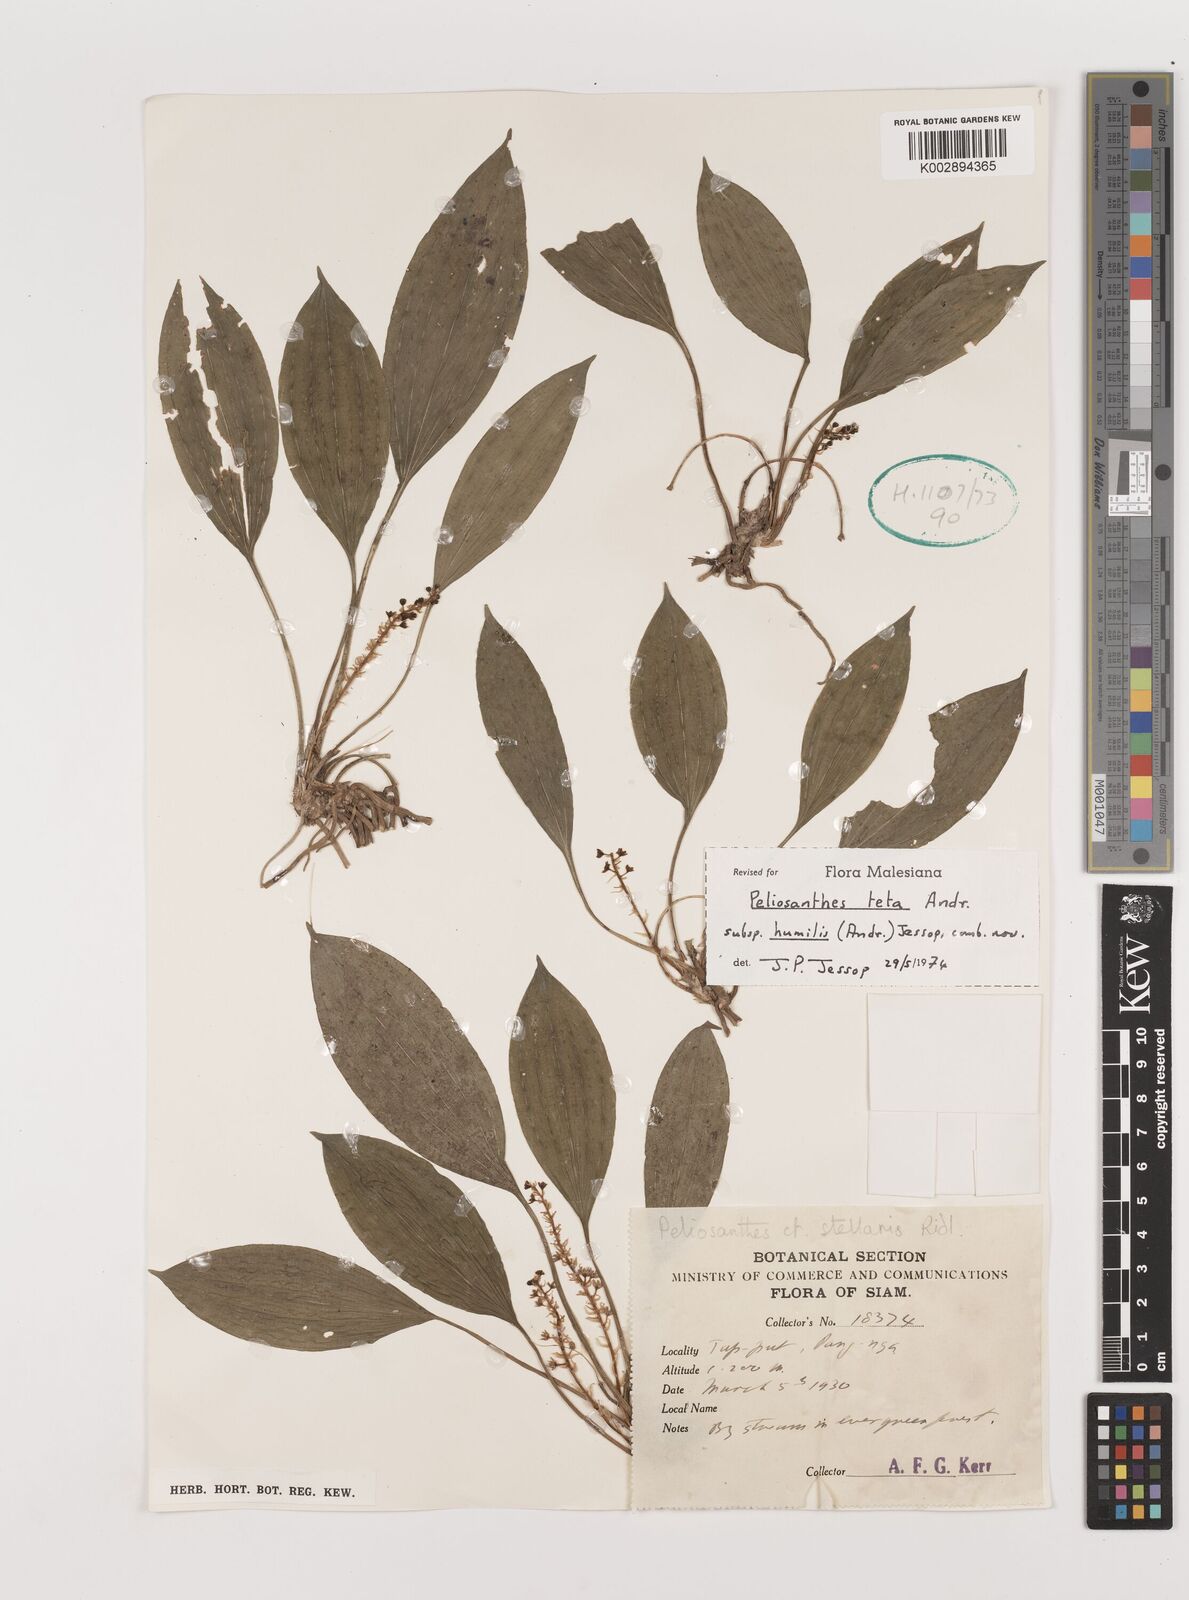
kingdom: Plantae
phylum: Tracheophyta
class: Liliopsida
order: Asparagales
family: Asparagaceae
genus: Peliosanthes
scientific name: Peliosanthes teta
